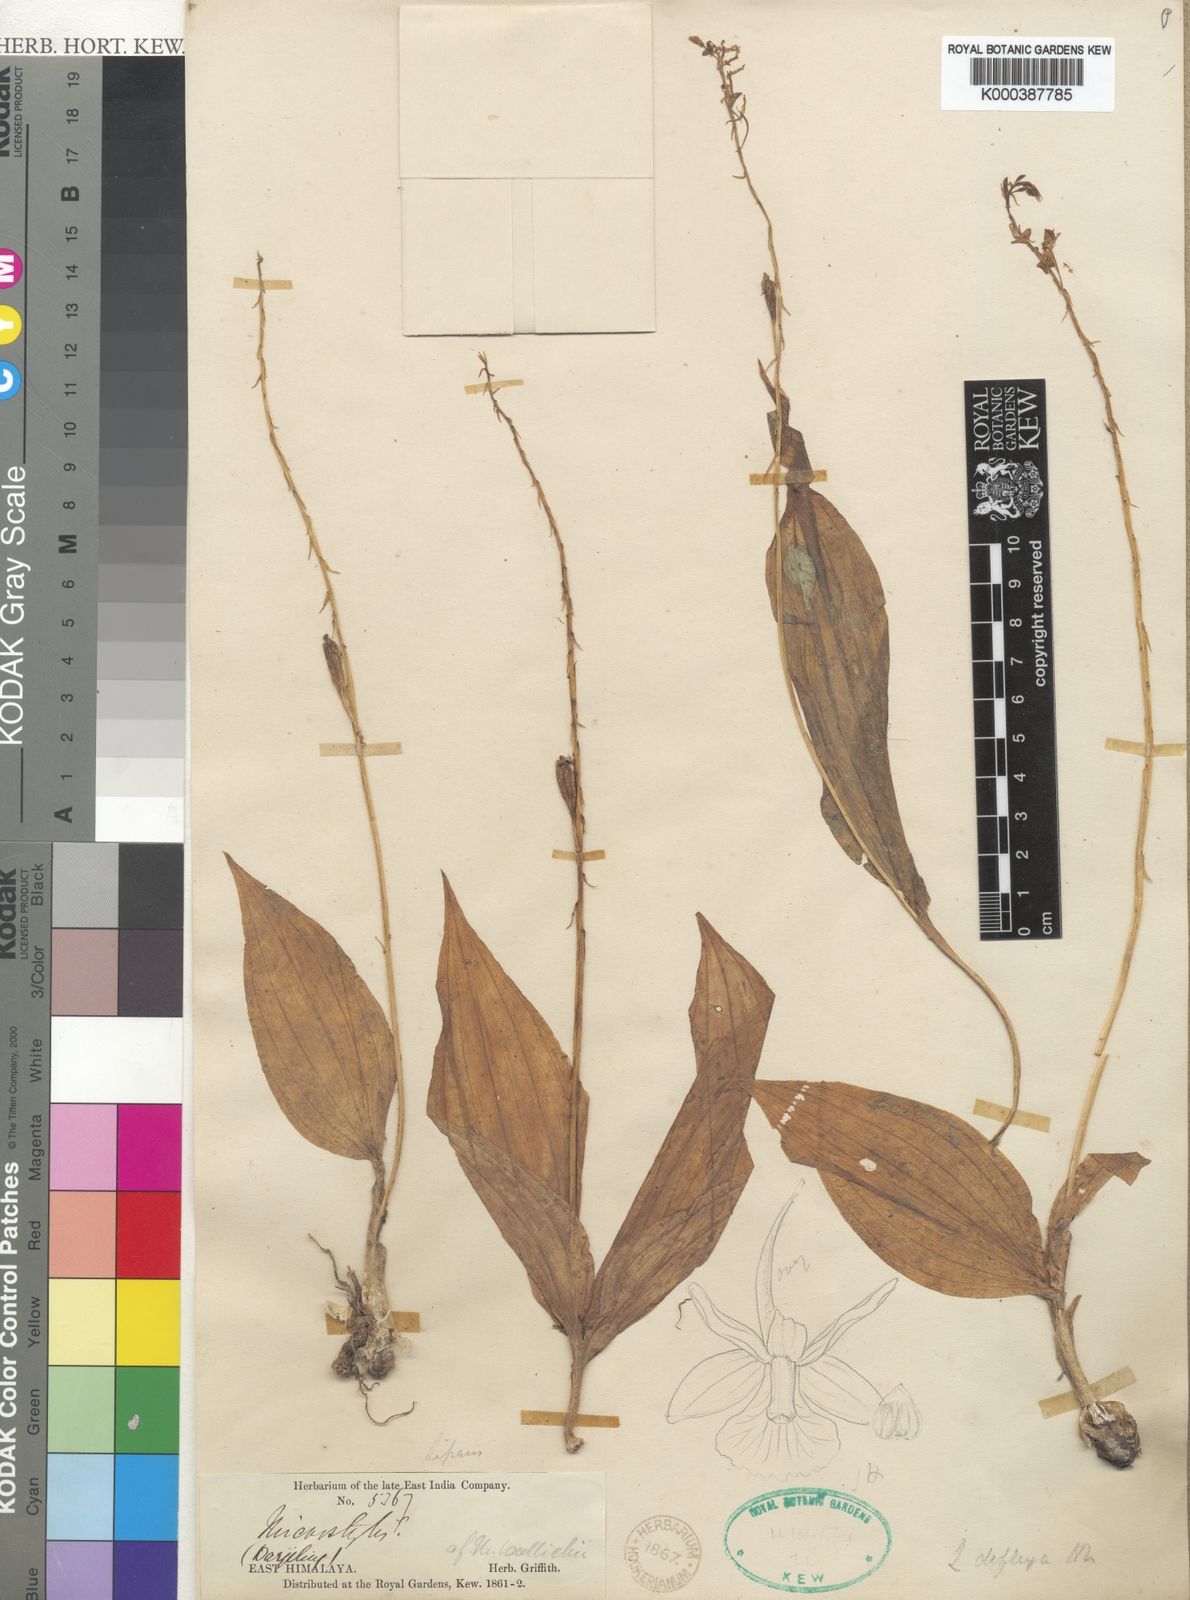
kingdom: Plantae
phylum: Tracheophyta
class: Liliopsida
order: Asparagales
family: Orchidaceae
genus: Liparis
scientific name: Liparis deflexa
